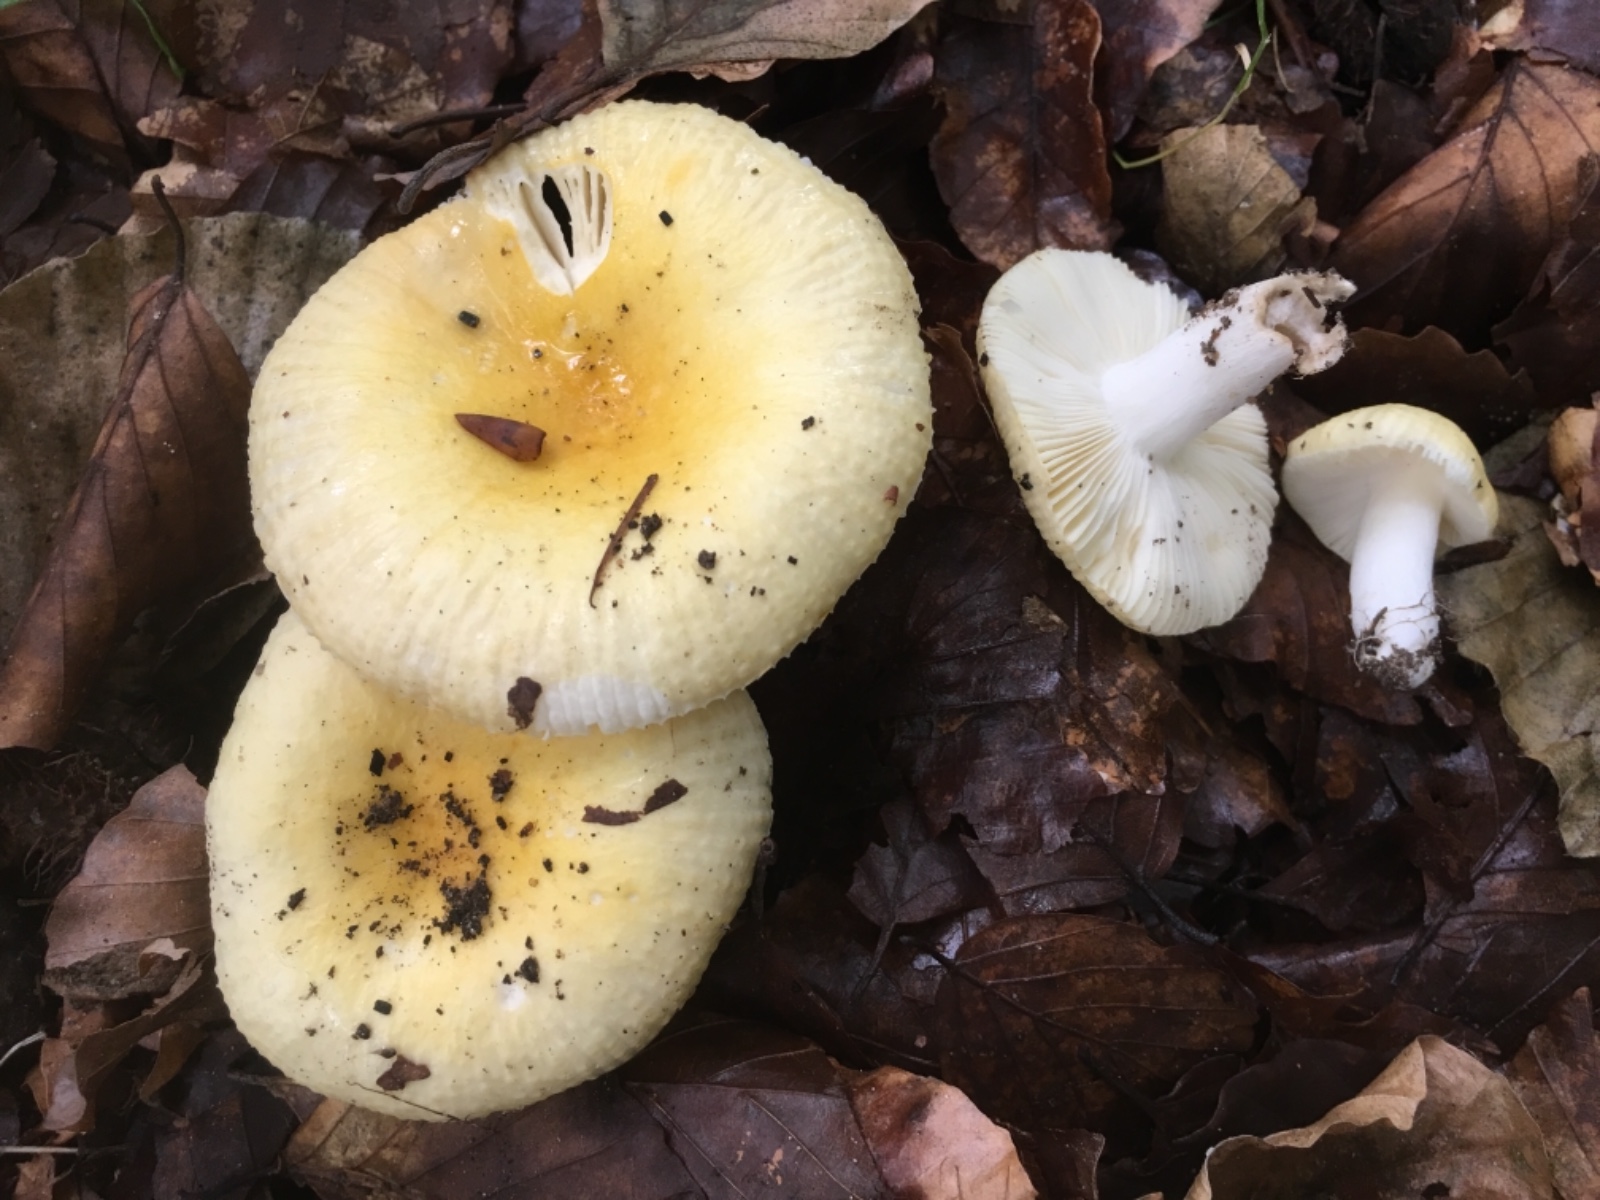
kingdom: Fungi
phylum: Basidiomycota
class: Agaricomycetes
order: Russulales
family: Russulaceae
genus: Russula
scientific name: Russula solaris
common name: sol-skørhat
